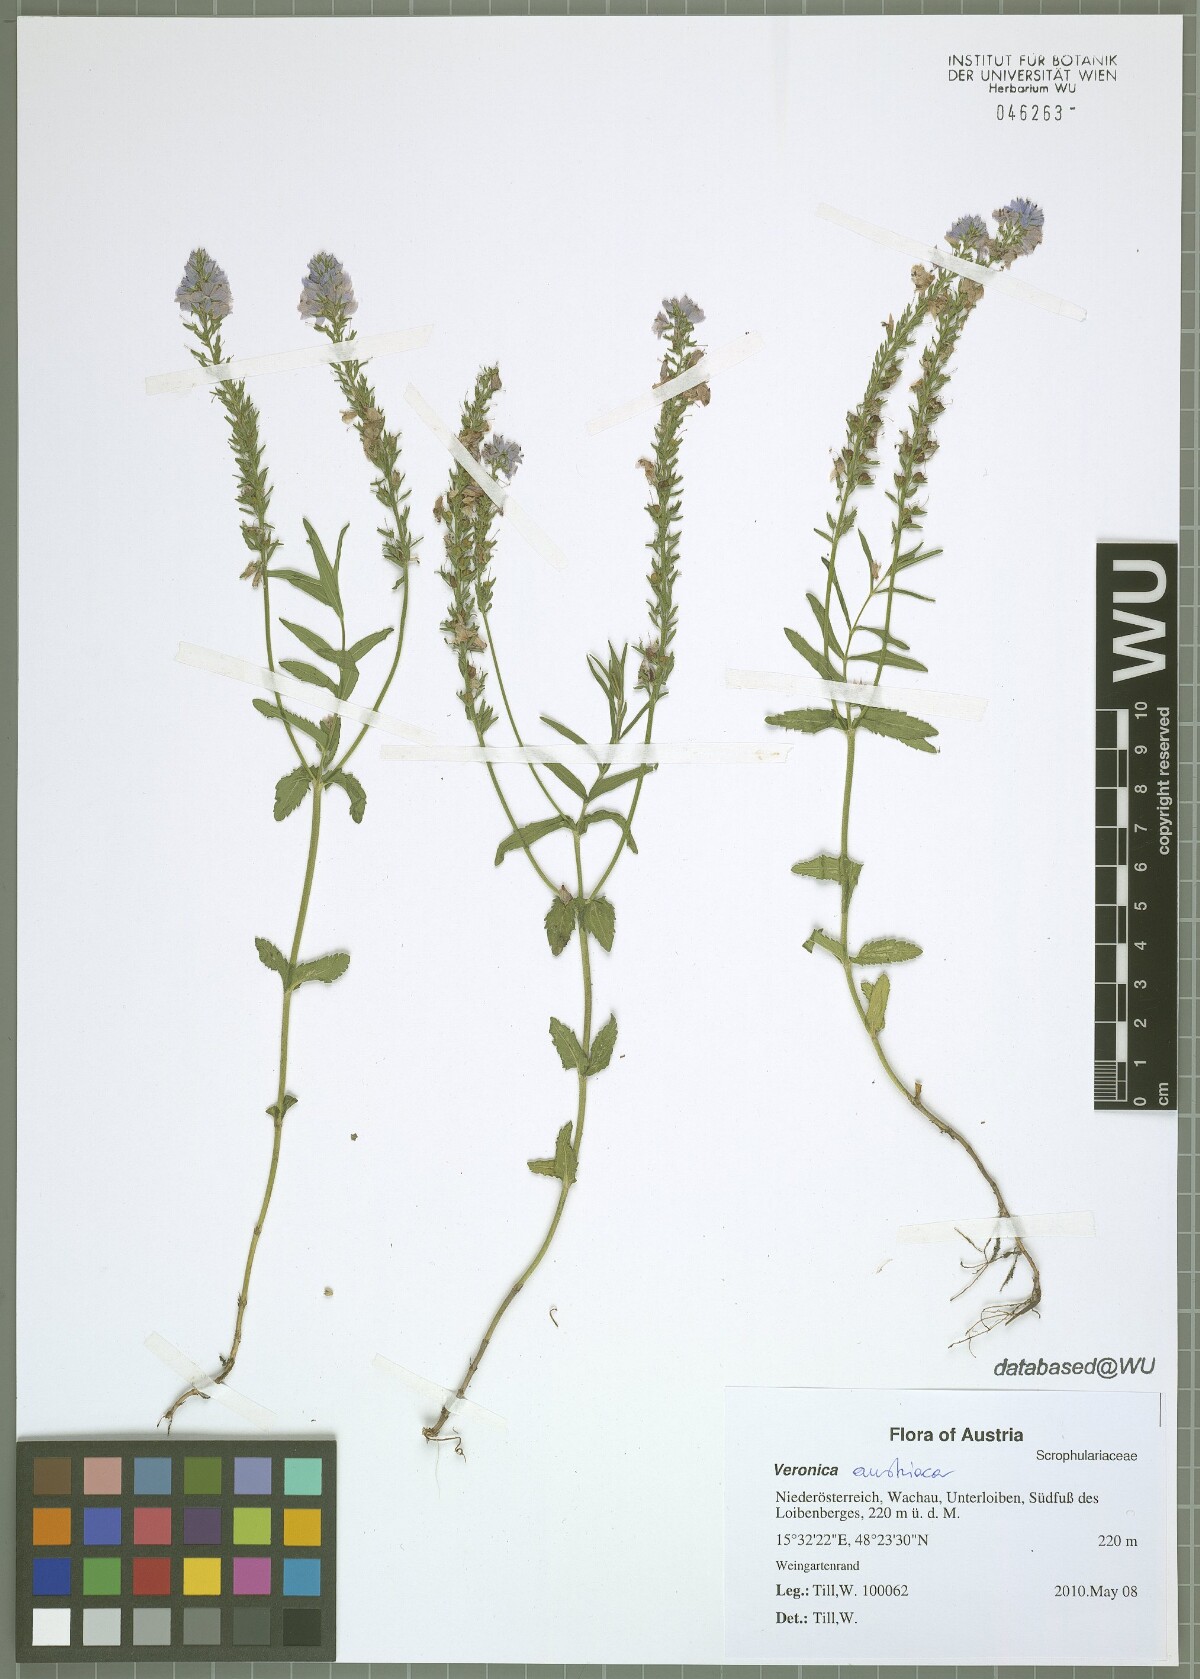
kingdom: Plantae
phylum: Tracheophyta
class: Magnoliopsida
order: Lamiales
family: Plantaginaceae
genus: Veronica
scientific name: Veronica austriaca
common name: Large speedwell
